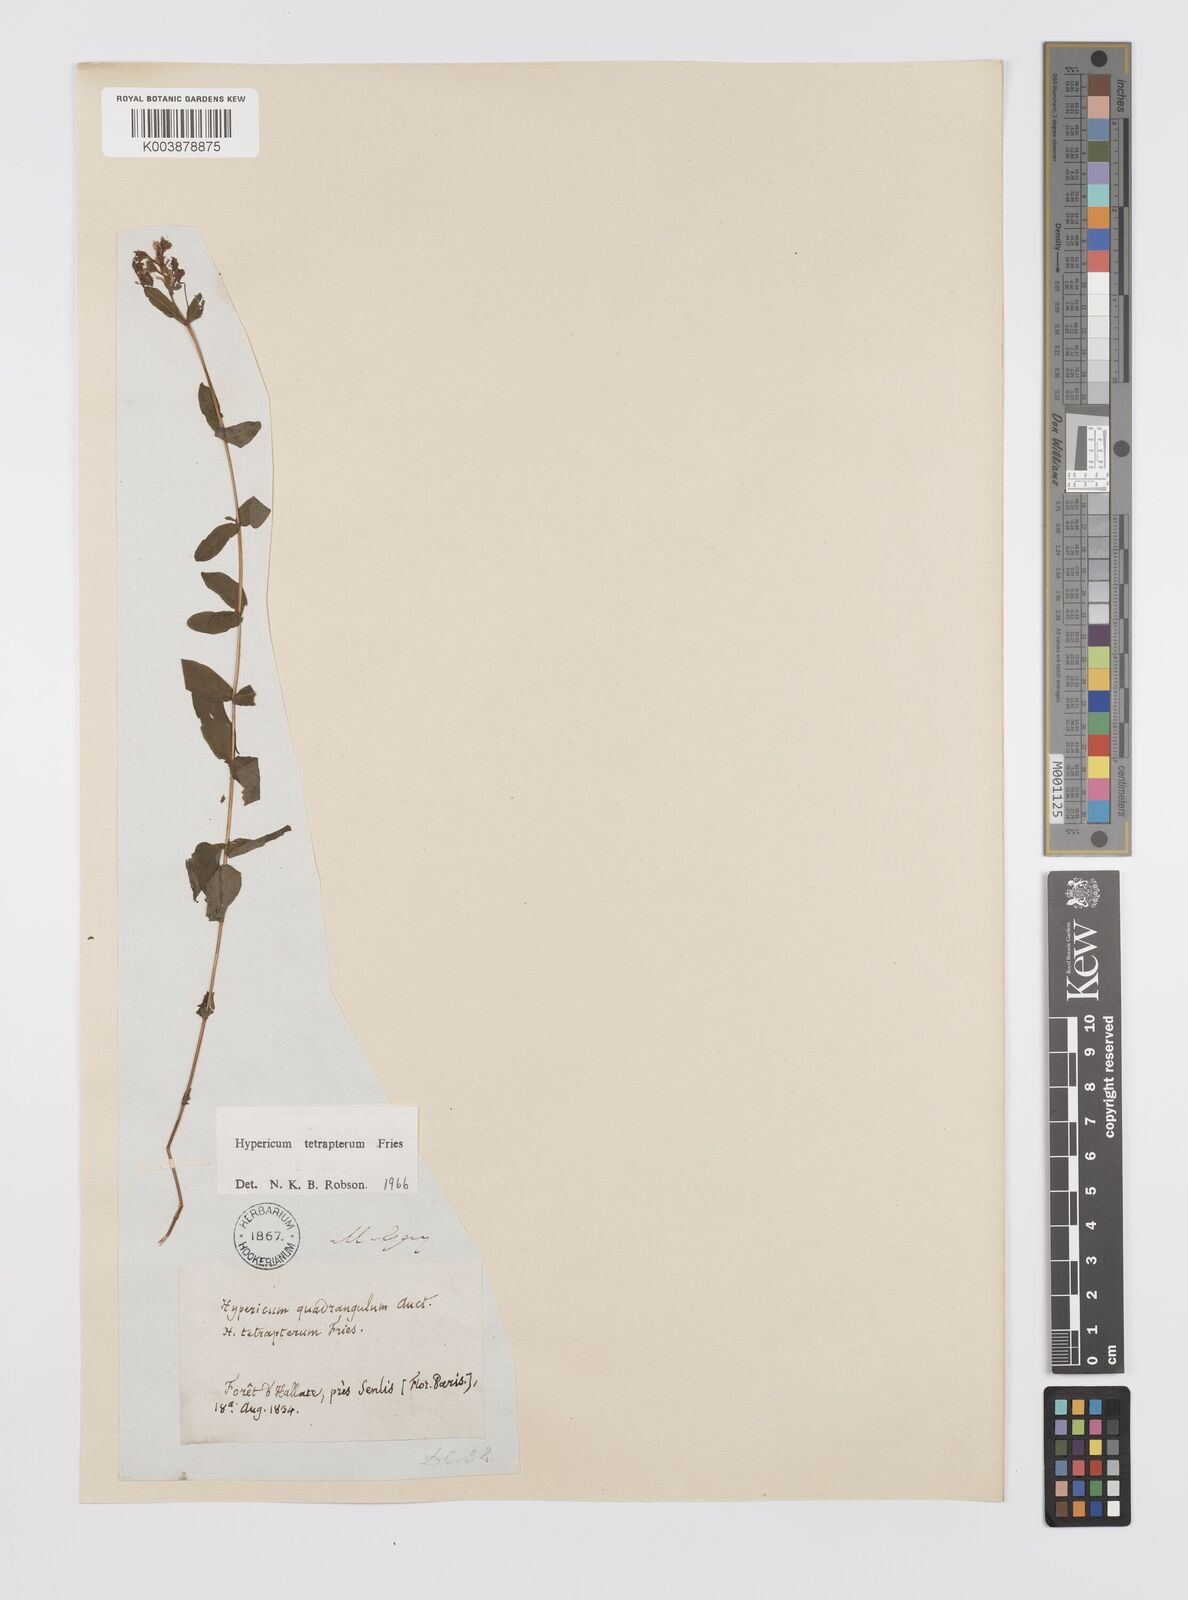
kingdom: Plantae
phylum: Tracheophyta
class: Magnoliopsida
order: Malpighiales
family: Hypericaceae
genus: Hypericum
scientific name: Hypericum tetrapterum
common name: Square-stalked st. john's-wort
